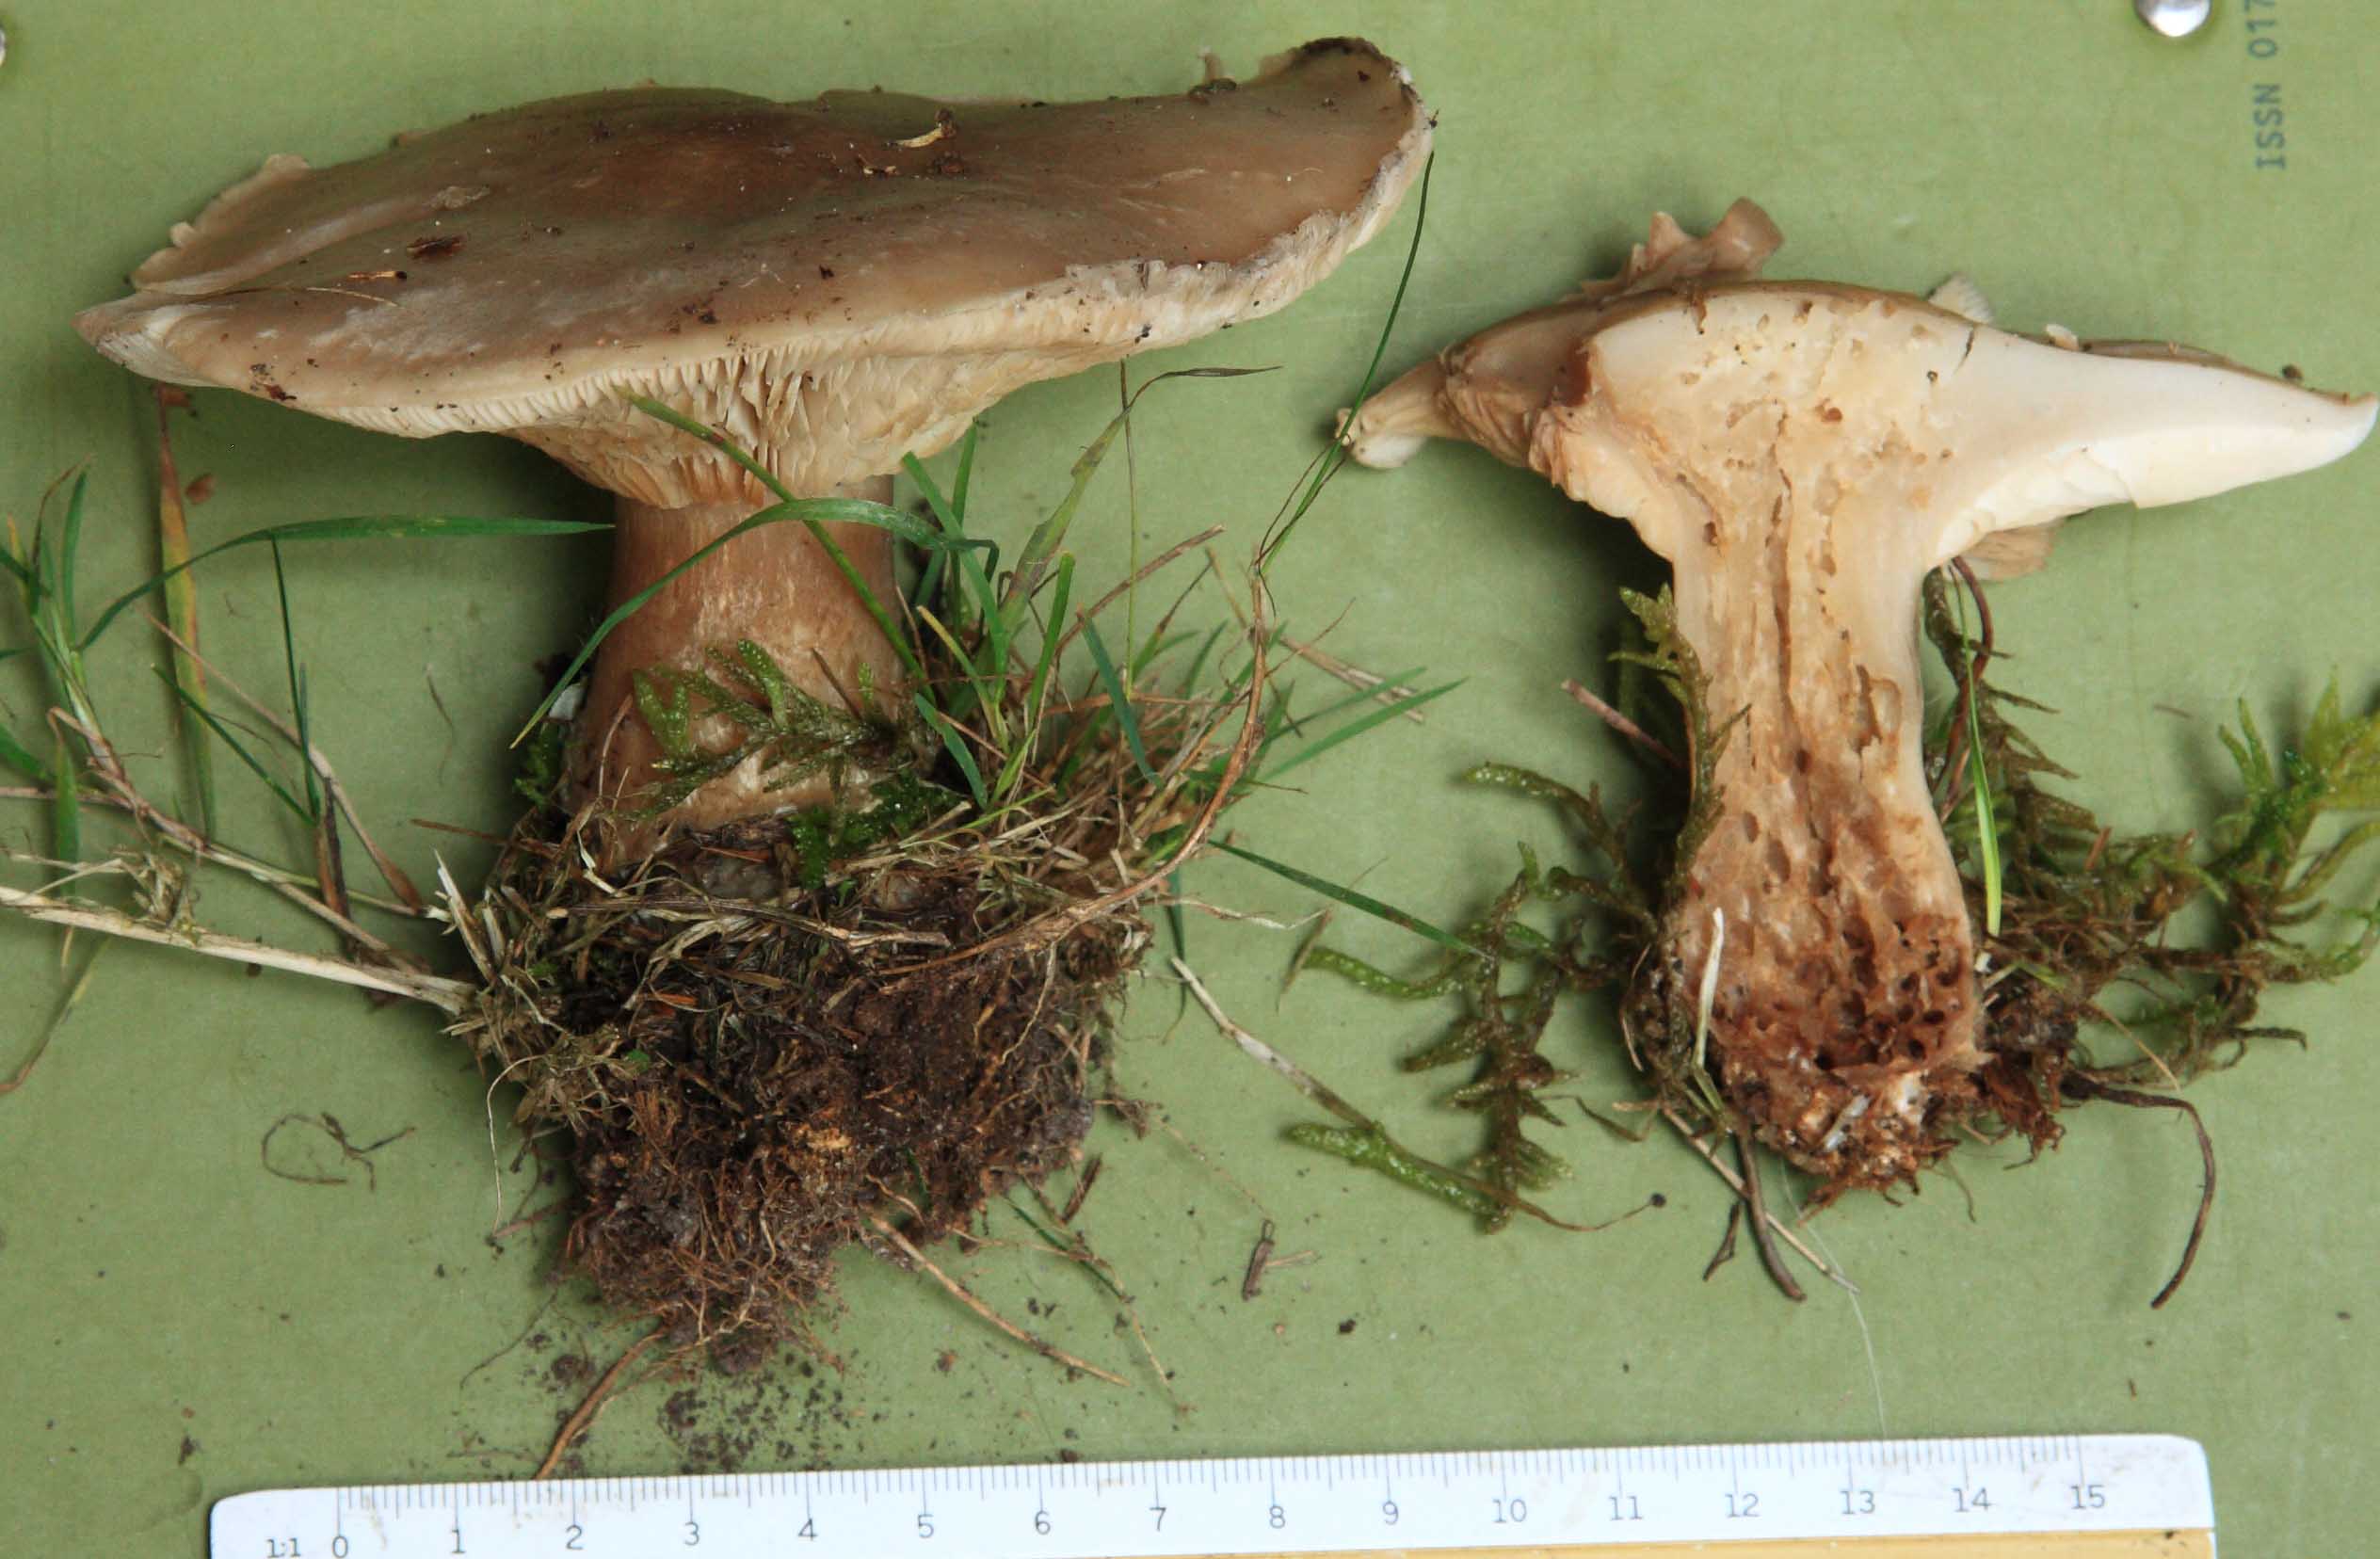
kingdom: Fungi
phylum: Basidiomycota
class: Agaricomycetes
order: Agaricales
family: Tricholomataceae
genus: Clitocybe
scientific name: Clitocybe nebularis
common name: tåge-tragthat
